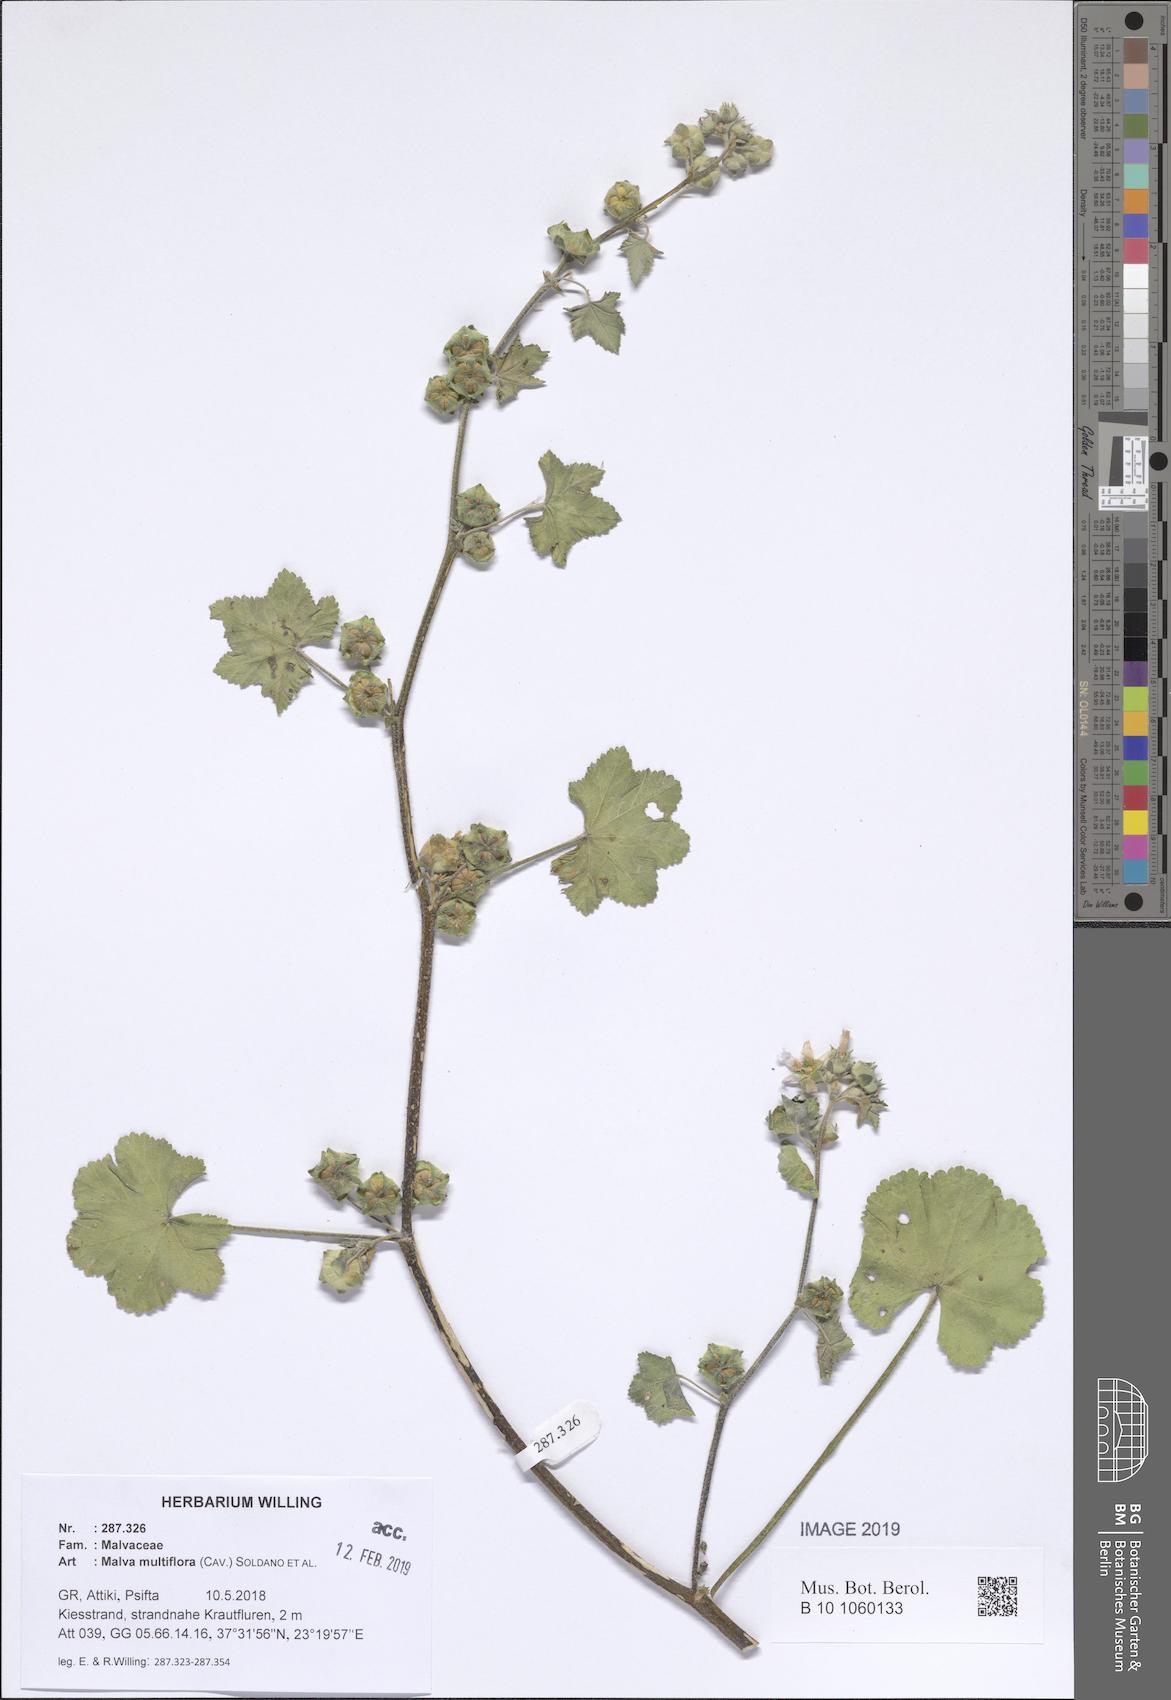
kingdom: Plantae
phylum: Tracheophyta
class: Magnoliopsida
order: Malvales
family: Malvaceae
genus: Malva
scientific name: Malva multiflora
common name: Cheeseweed
